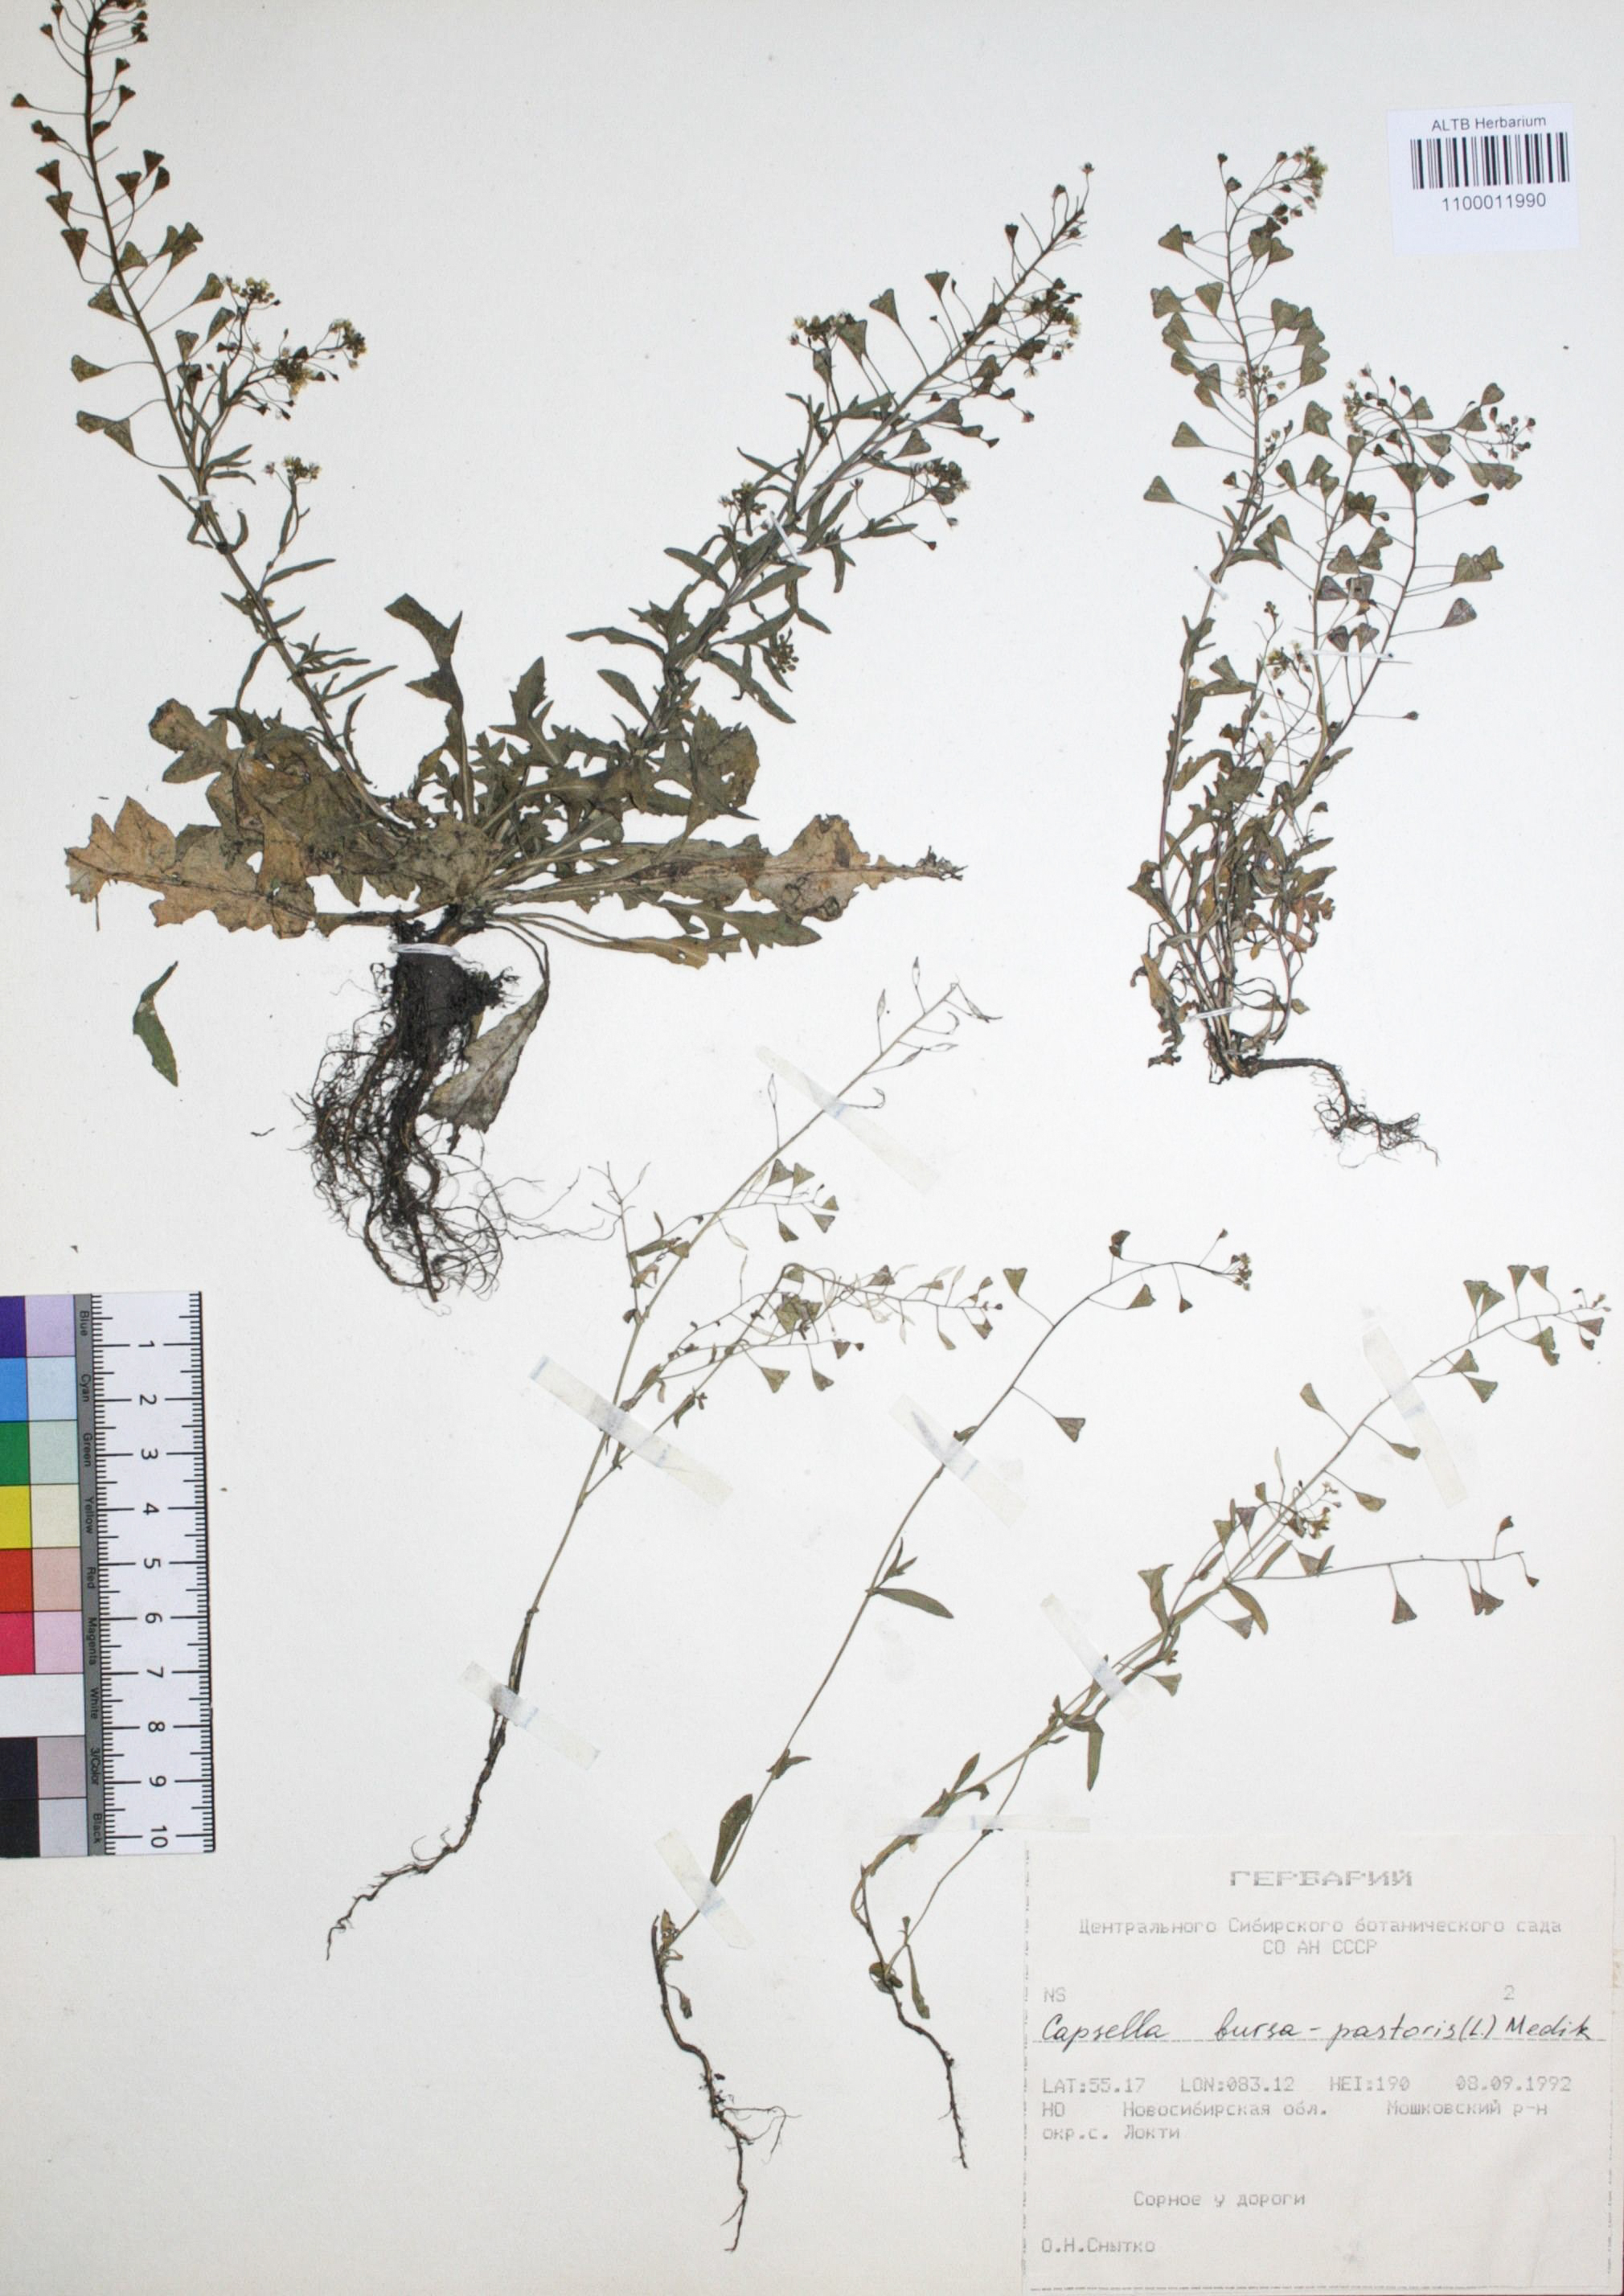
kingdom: Plantae
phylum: Tracheophyta
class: Magnoliopsida
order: Brassicales
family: Brassicaceae
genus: Capsella
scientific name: Capsella bursa-pastoris
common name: Shepherd's purse
